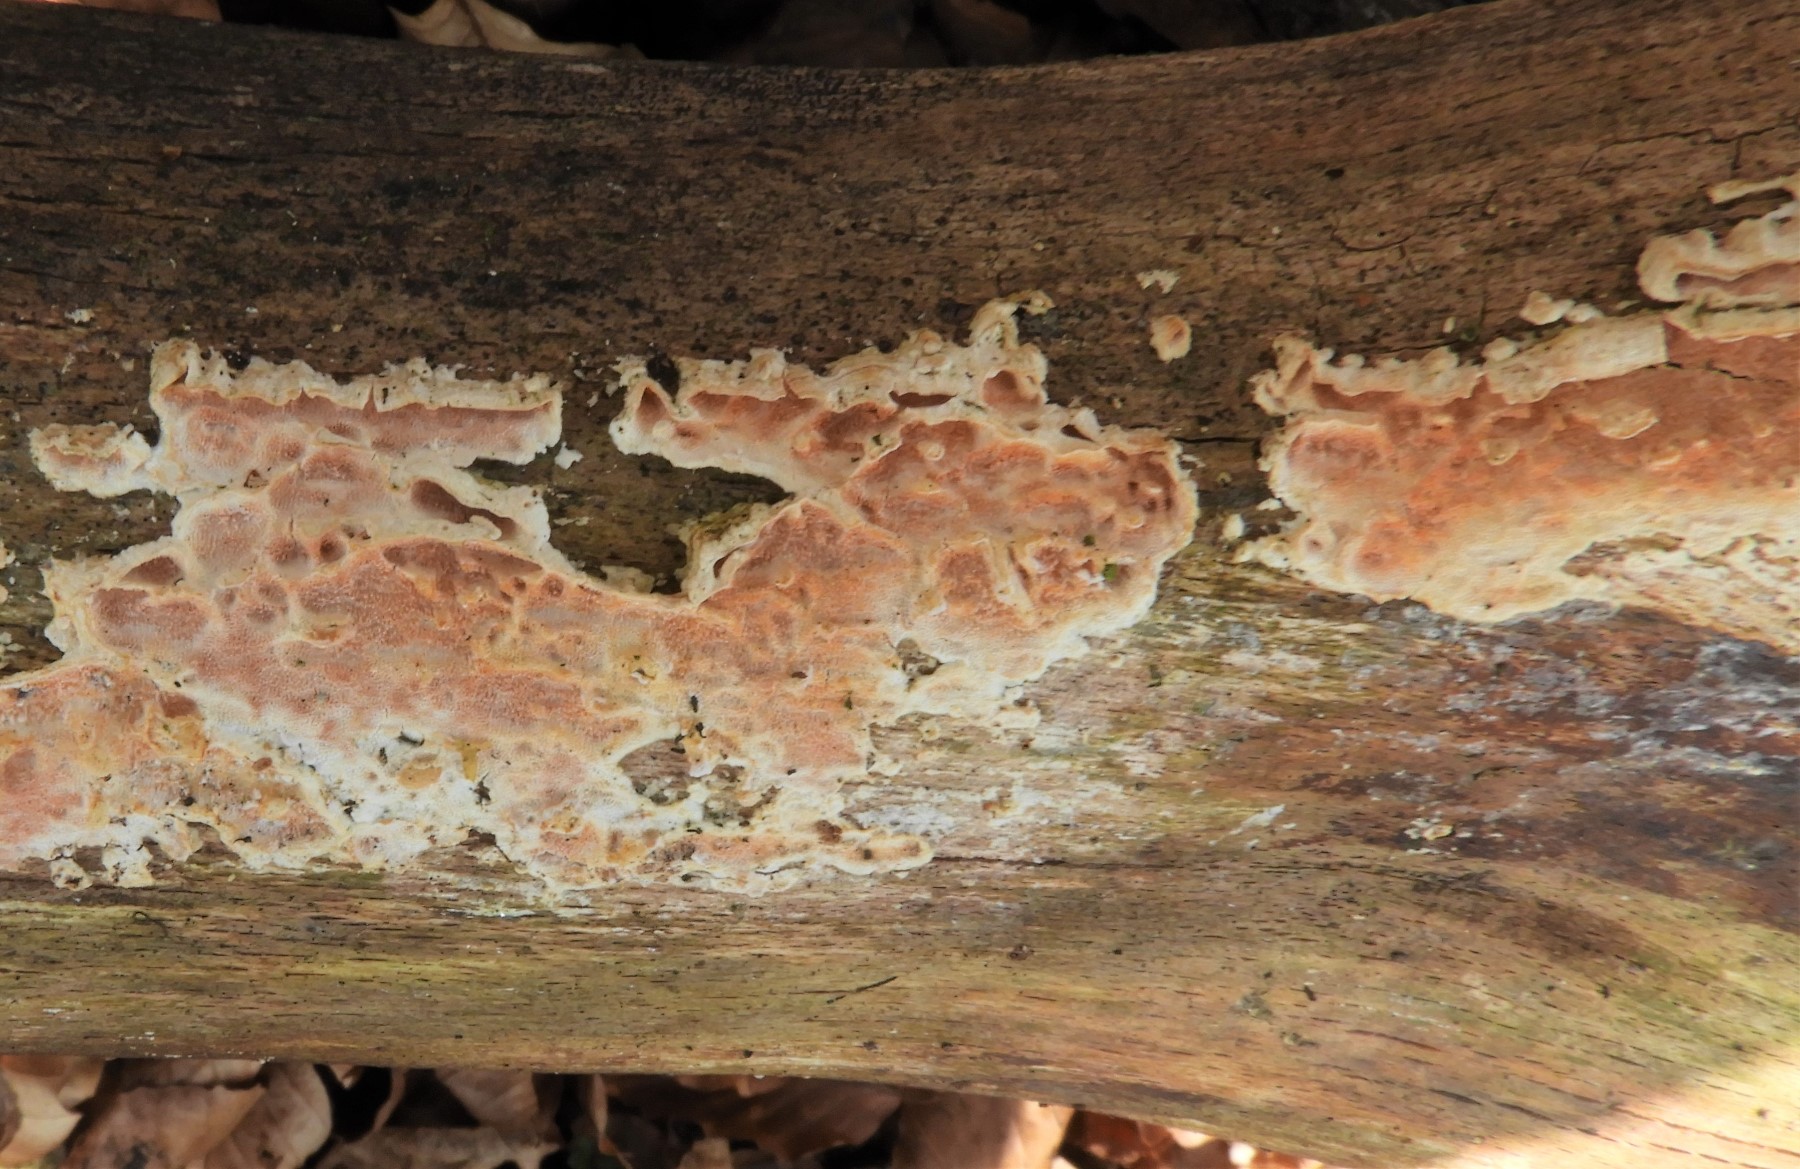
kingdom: Fungi
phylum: Basidiomycota
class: Agaricomycetes
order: Corticiales
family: Corticiaceae
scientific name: Corticiaceae
